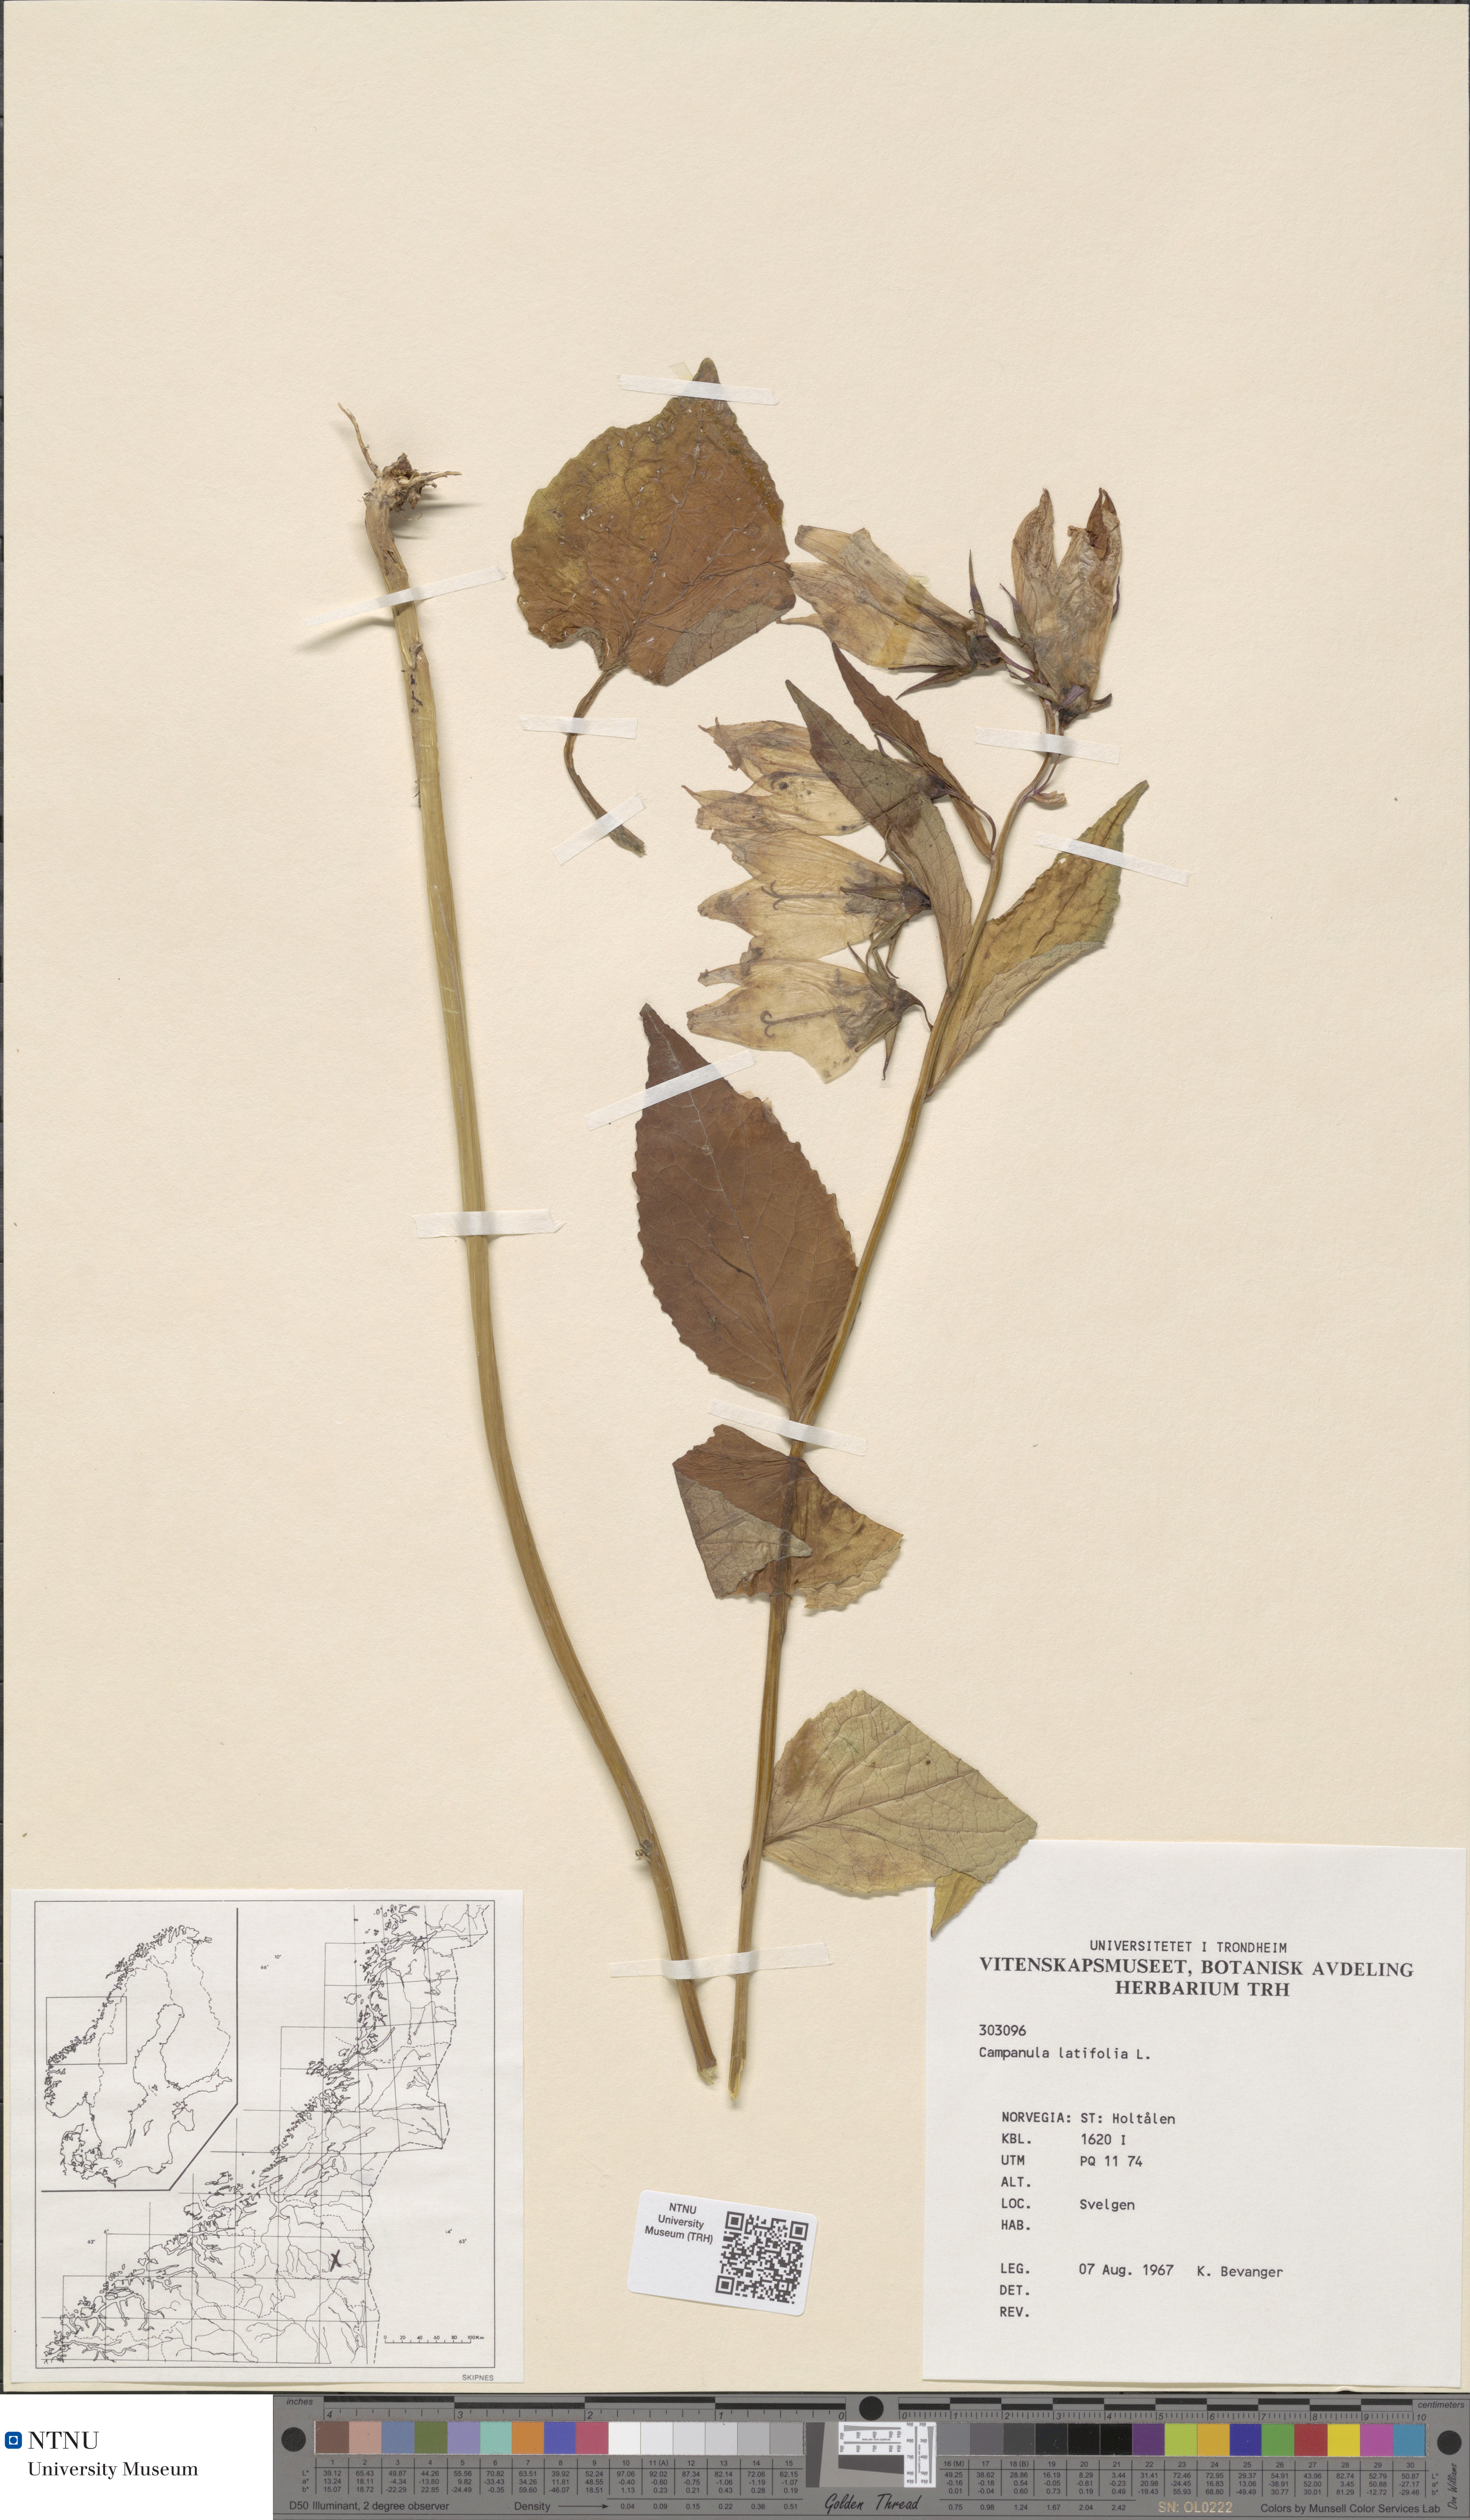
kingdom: Plantae
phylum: Tracheophyta
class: Magnoliopsida
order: Asterales
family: Campanulaceae
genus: Campanula
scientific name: Campanula latifolia
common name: Giant bellflower
